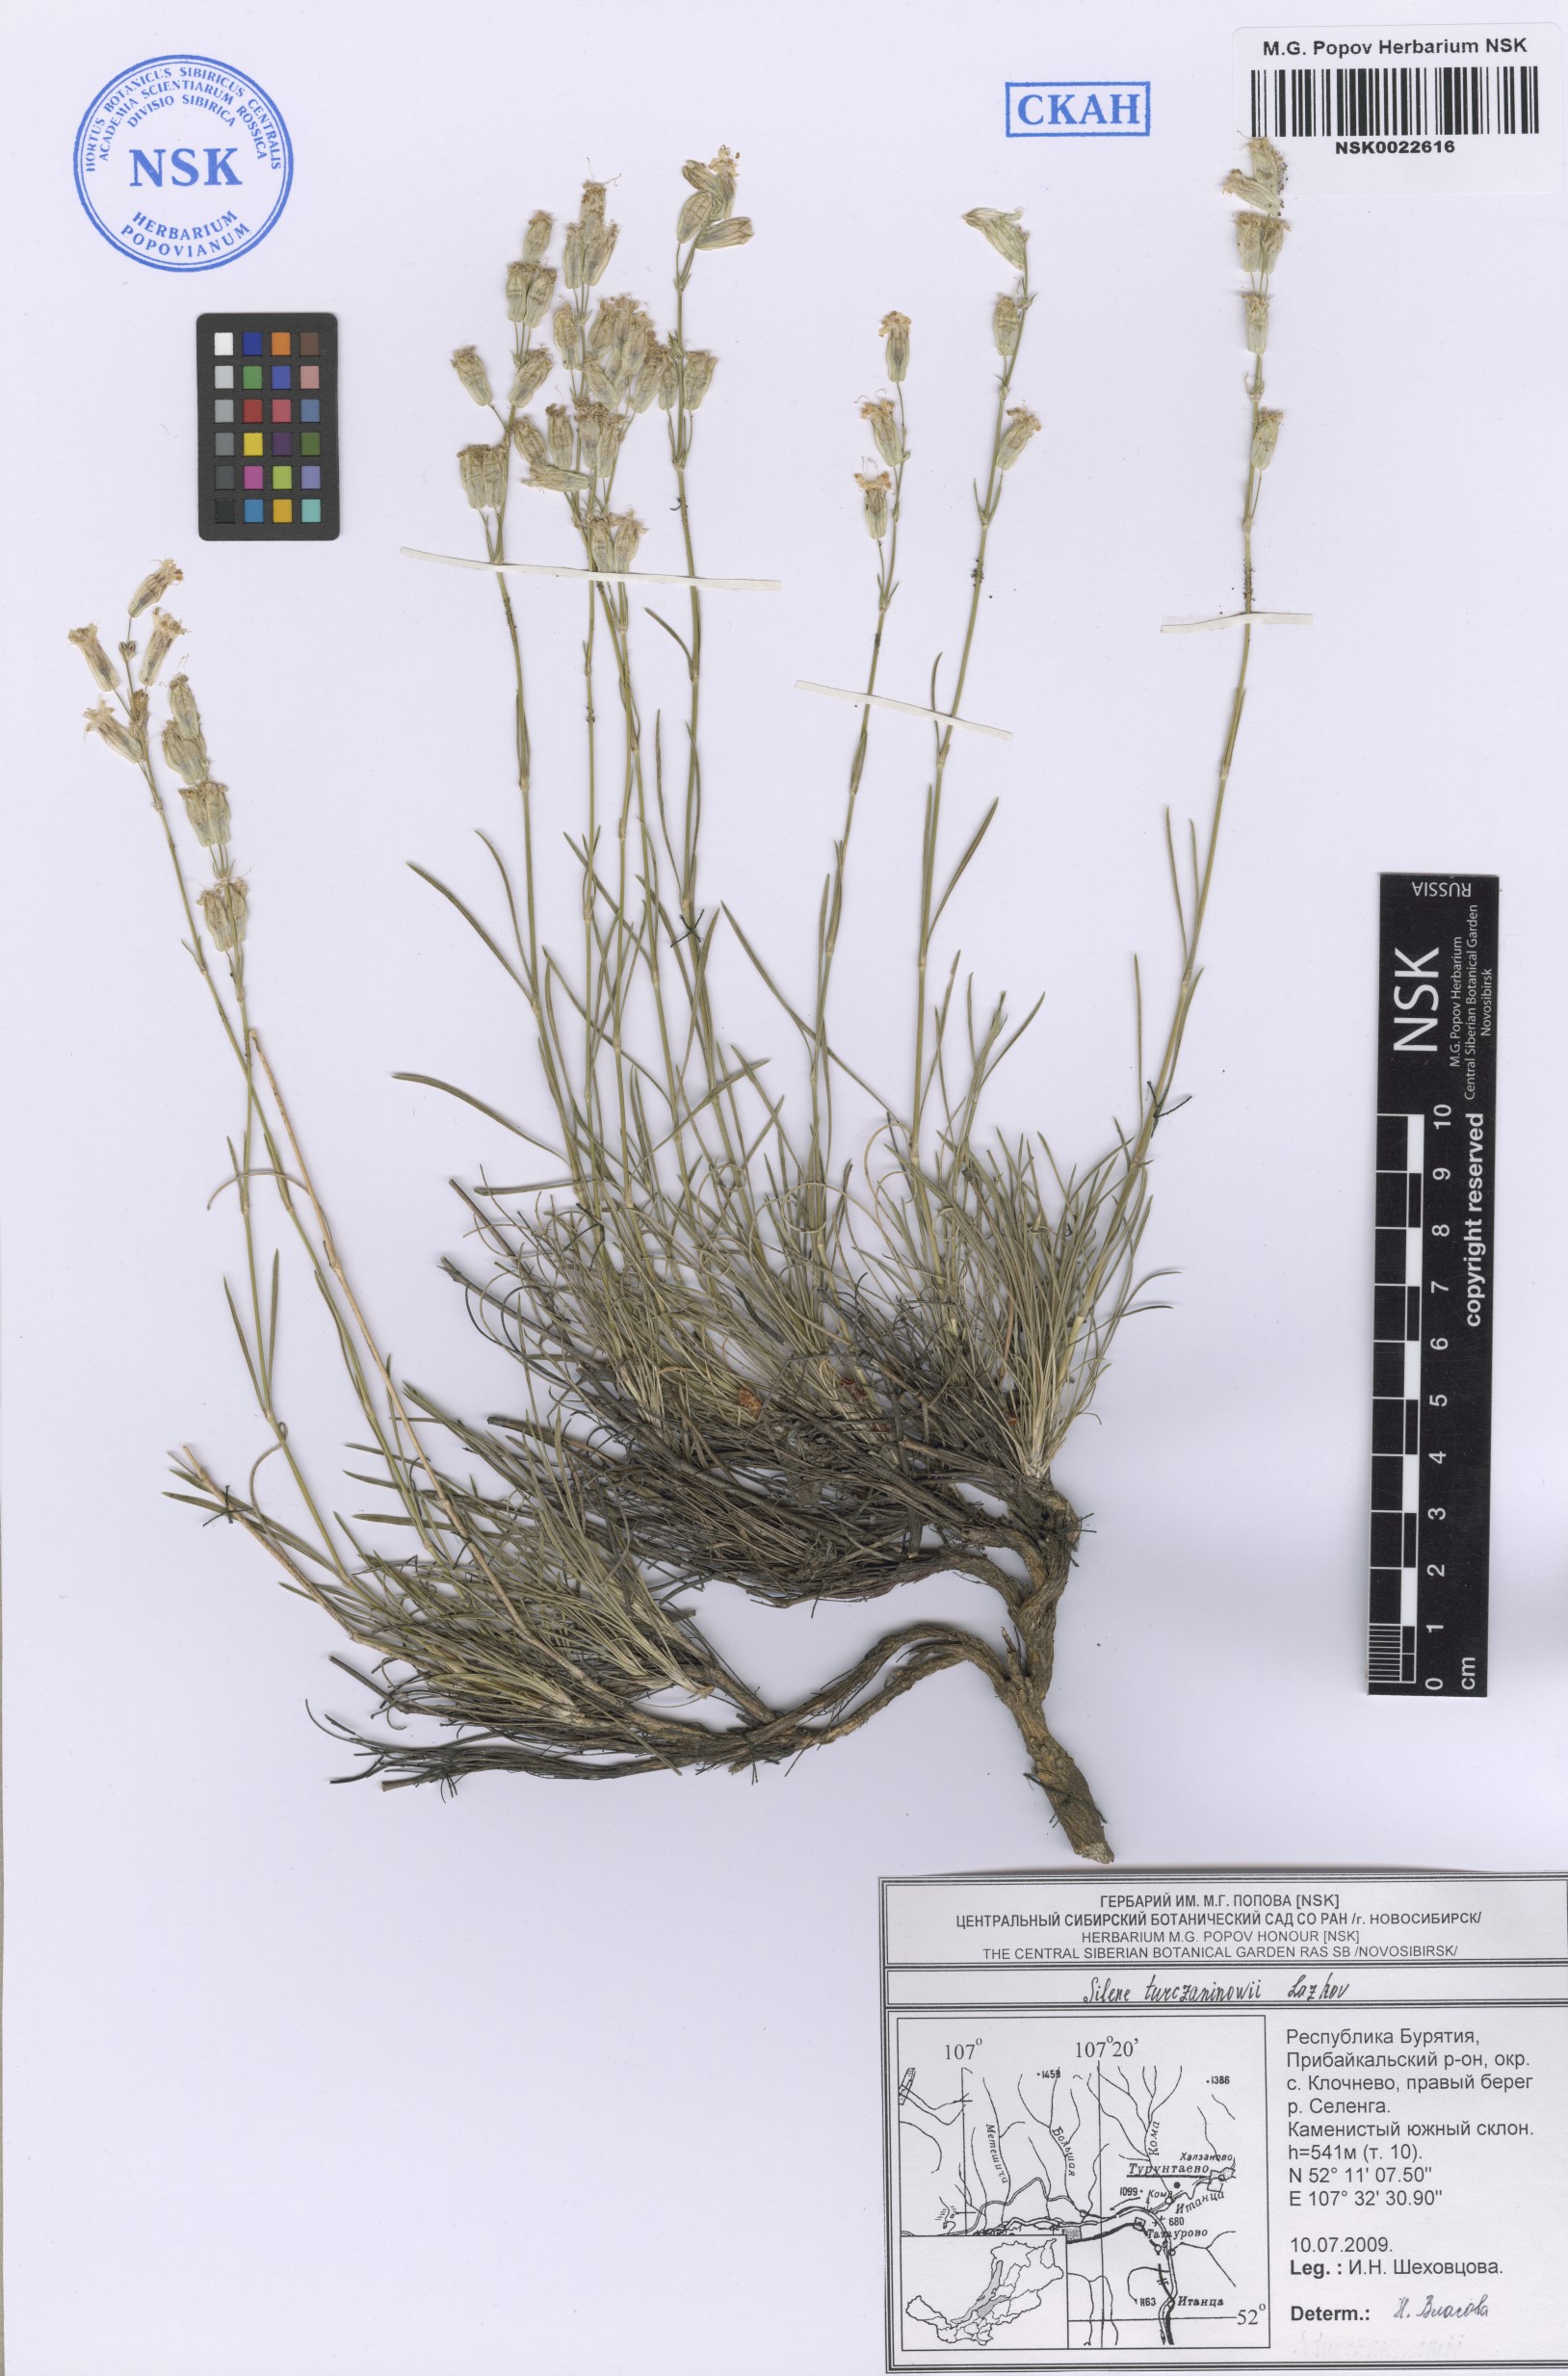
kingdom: Plantae
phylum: Tracheophyta
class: Magnoliopsida
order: Caryophyllales
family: Caryophyllaceae
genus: Silene
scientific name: Silene turczaninovii
